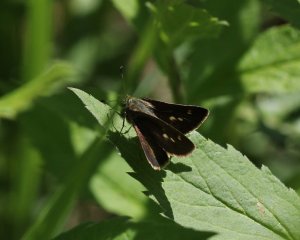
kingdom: Animalia
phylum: Arthropoda
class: Insecta
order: Lepidoptera
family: Hesperiidae
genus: Polites
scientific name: Polites egeremet
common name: Northern Broken-Dash
